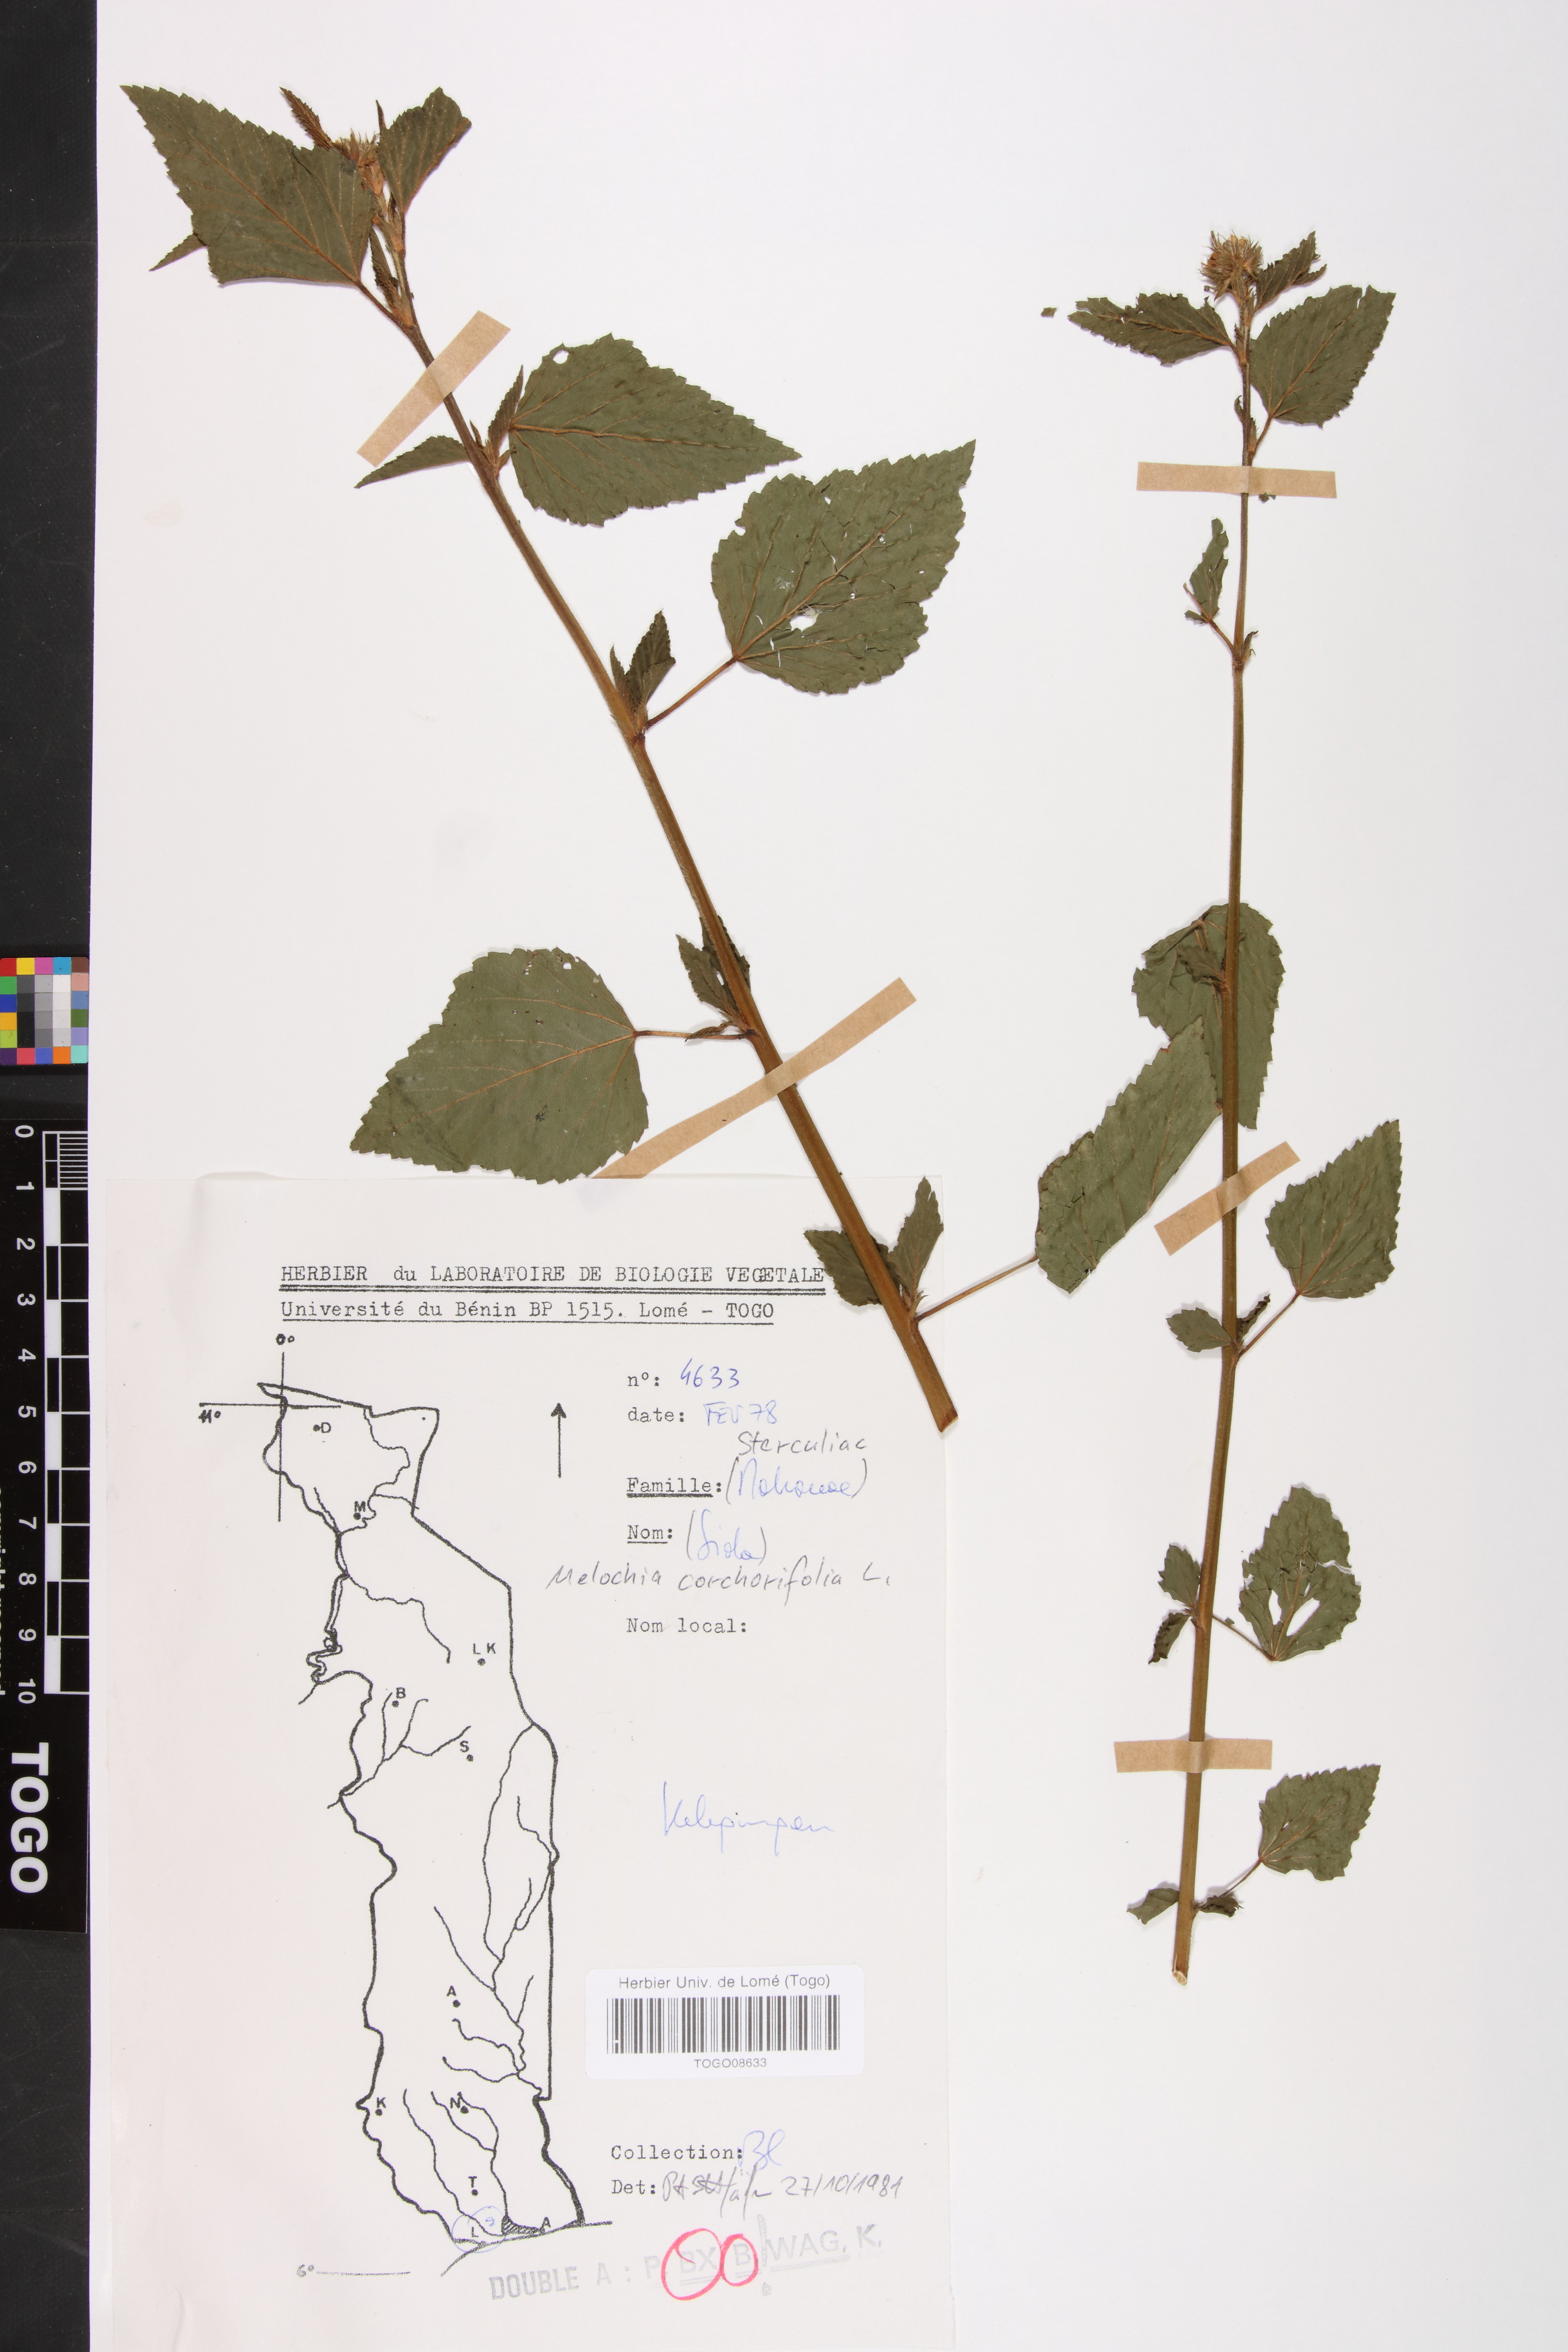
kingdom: Plantae
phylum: Tracheophyta
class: Magnoliopsida
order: Malvales
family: Malvaceae
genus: Melochia
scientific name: Melochia corchorifolia
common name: Chocolateweed
